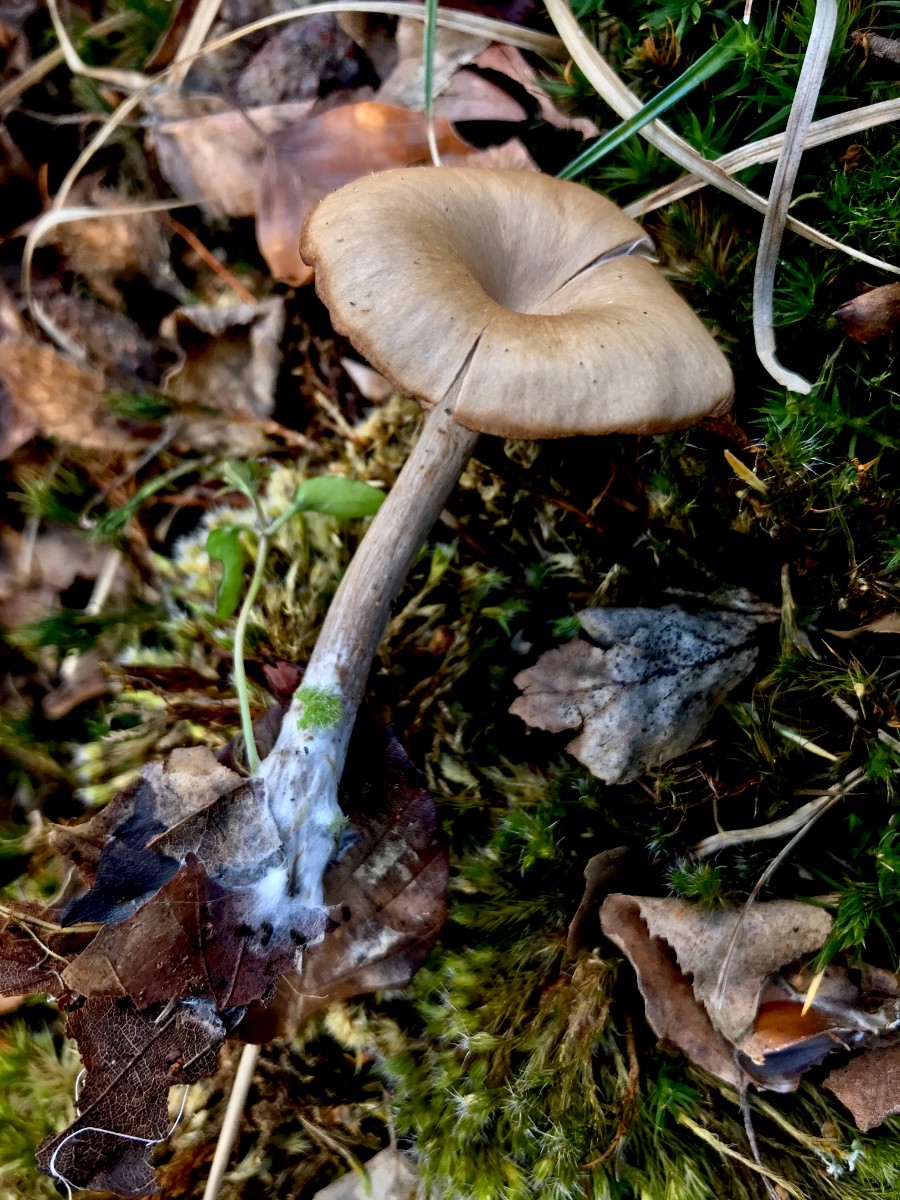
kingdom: Fungi
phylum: Basidiomycota
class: Agaricomycetes
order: Agaricales
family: Pseudoclitocybaceae
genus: Pseudoclitocybe
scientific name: Pseudoclitocybe cyathiformis
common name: almindelig bægertragthat
